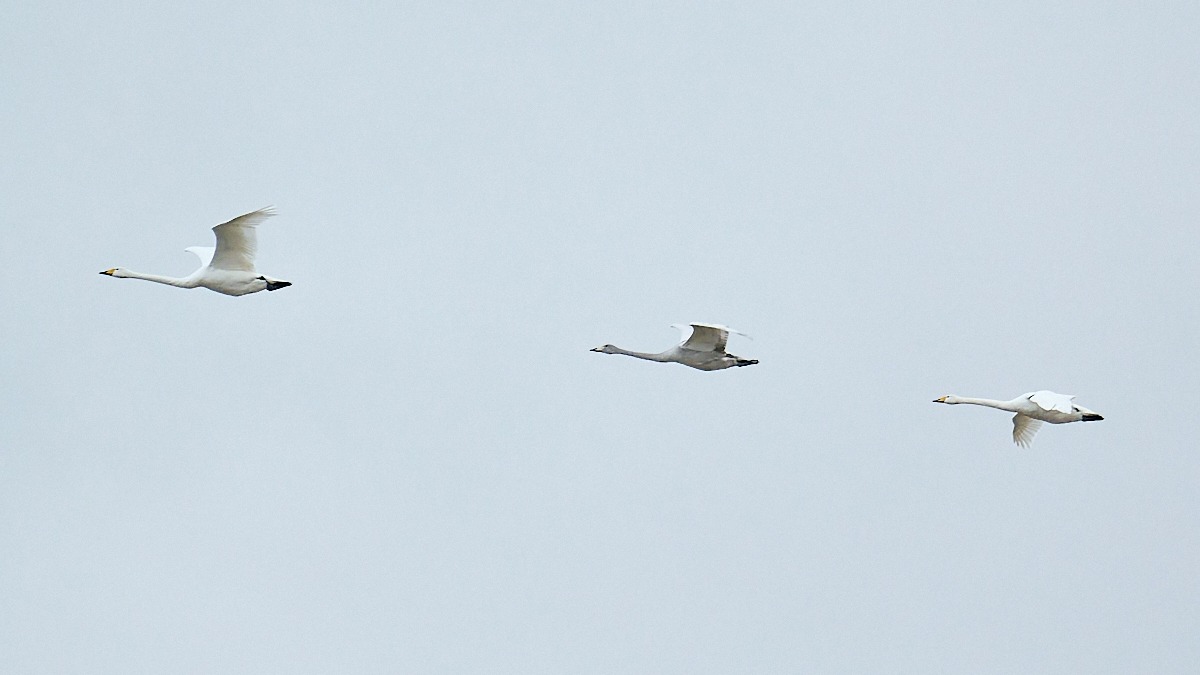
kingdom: Animalia
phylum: Chordata
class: Aves
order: Anseriformes
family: Anatidae
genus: Cygnus
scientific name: Cygnus cygnus
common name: Sangsvane
